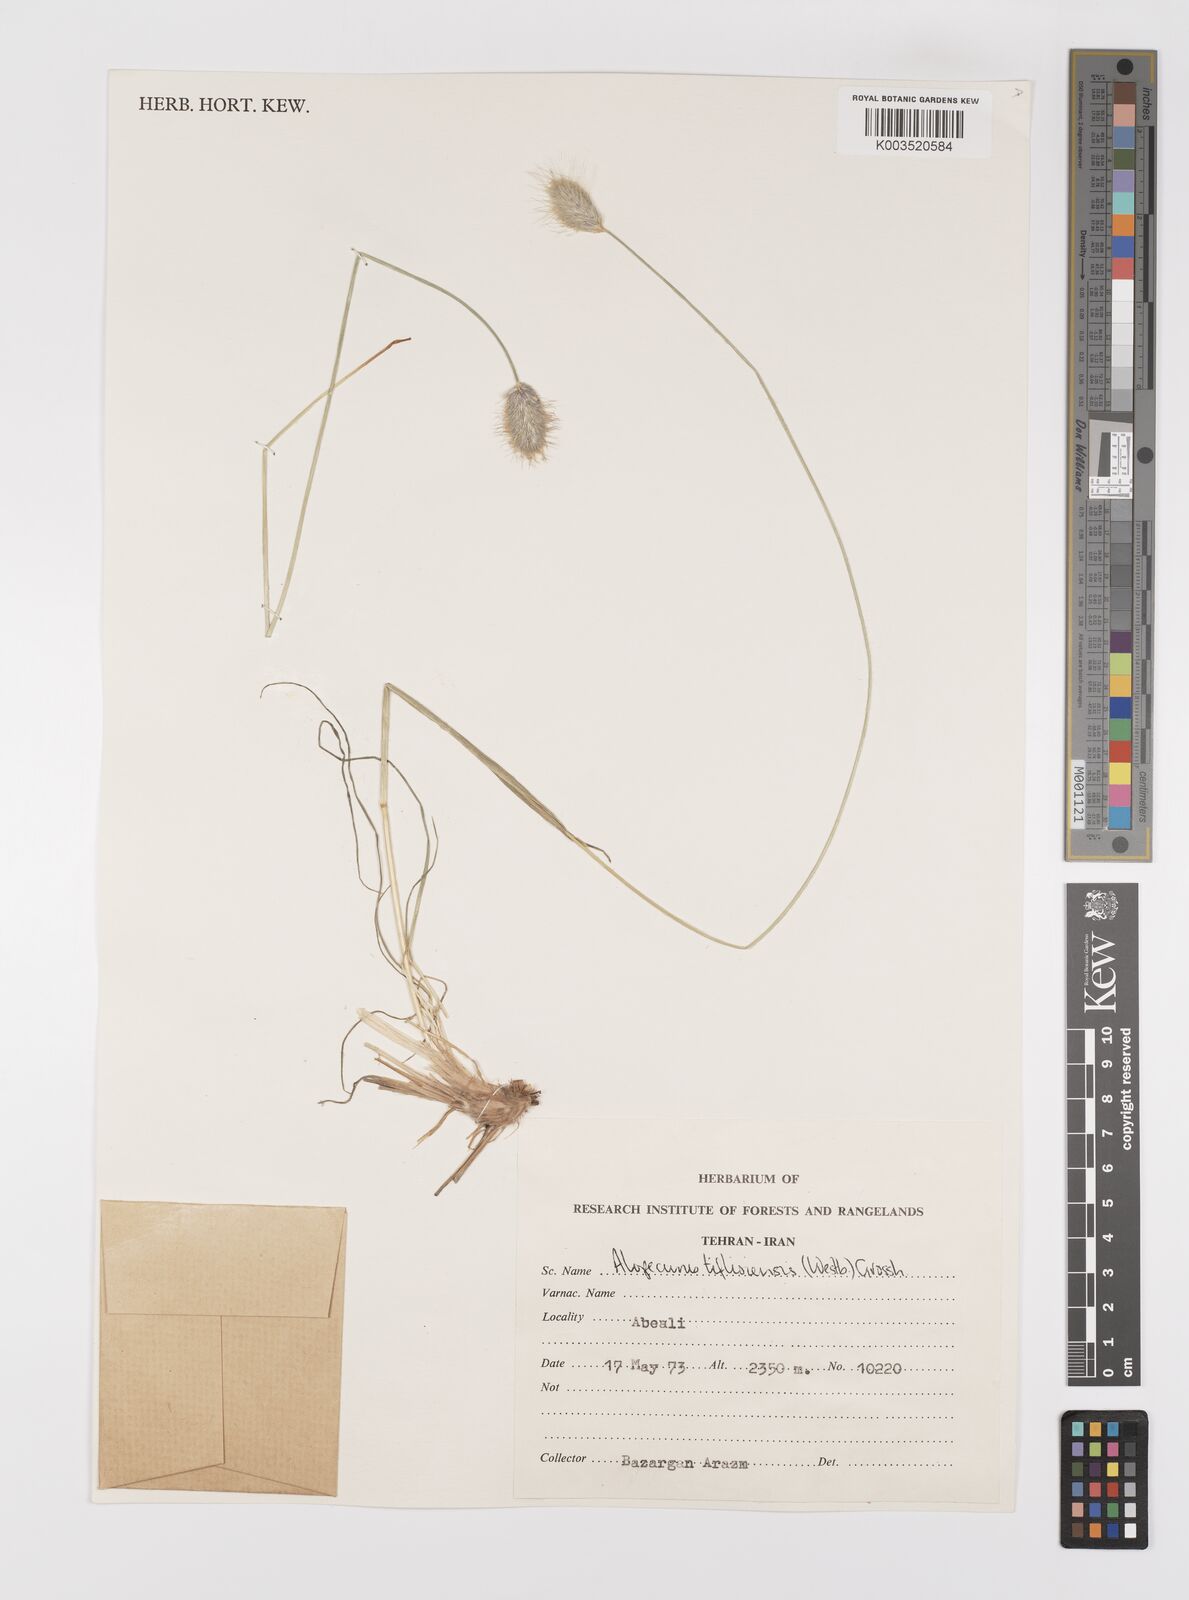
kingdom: Plantae
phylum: Tracheophyta
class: Liliopsida
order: Poales
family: Poaceae
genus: Alopecurus
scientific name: Alopecurus textilis
